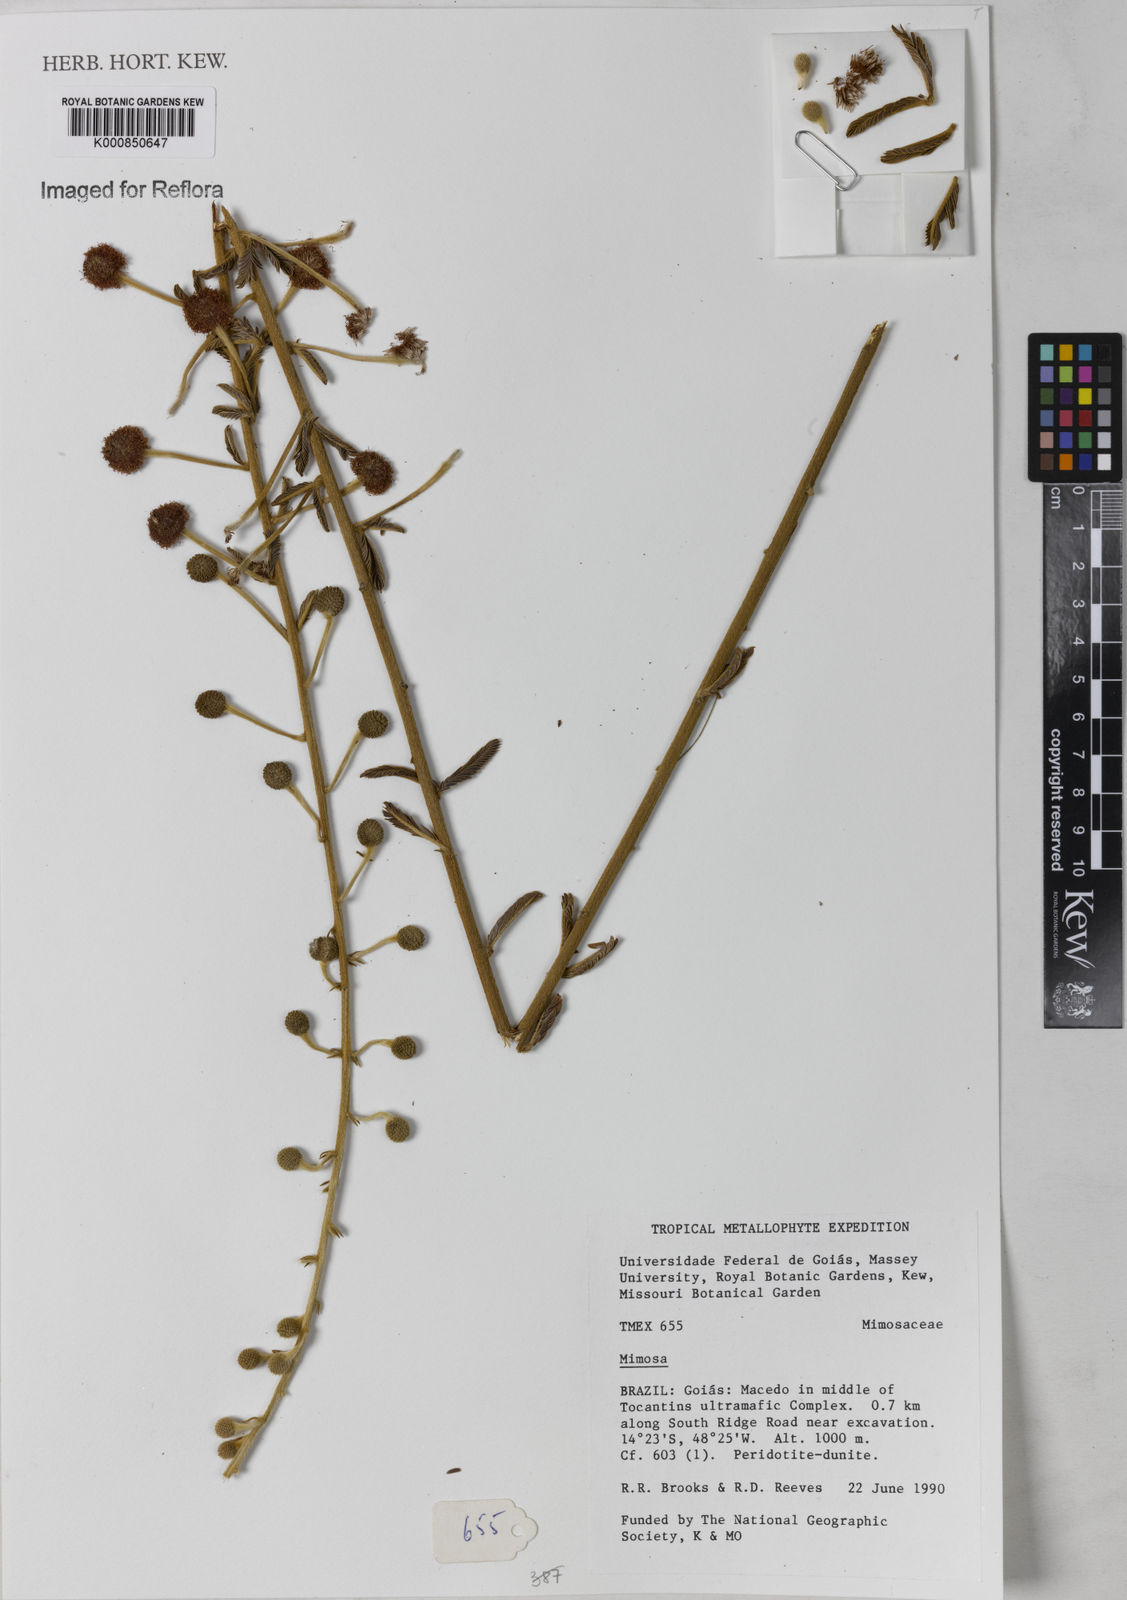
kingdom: Plantae
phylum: Tracheophyta
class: Magnoliopsida
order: Fabales
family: Fabaceae
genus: Mimosa
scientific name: Mimosa
